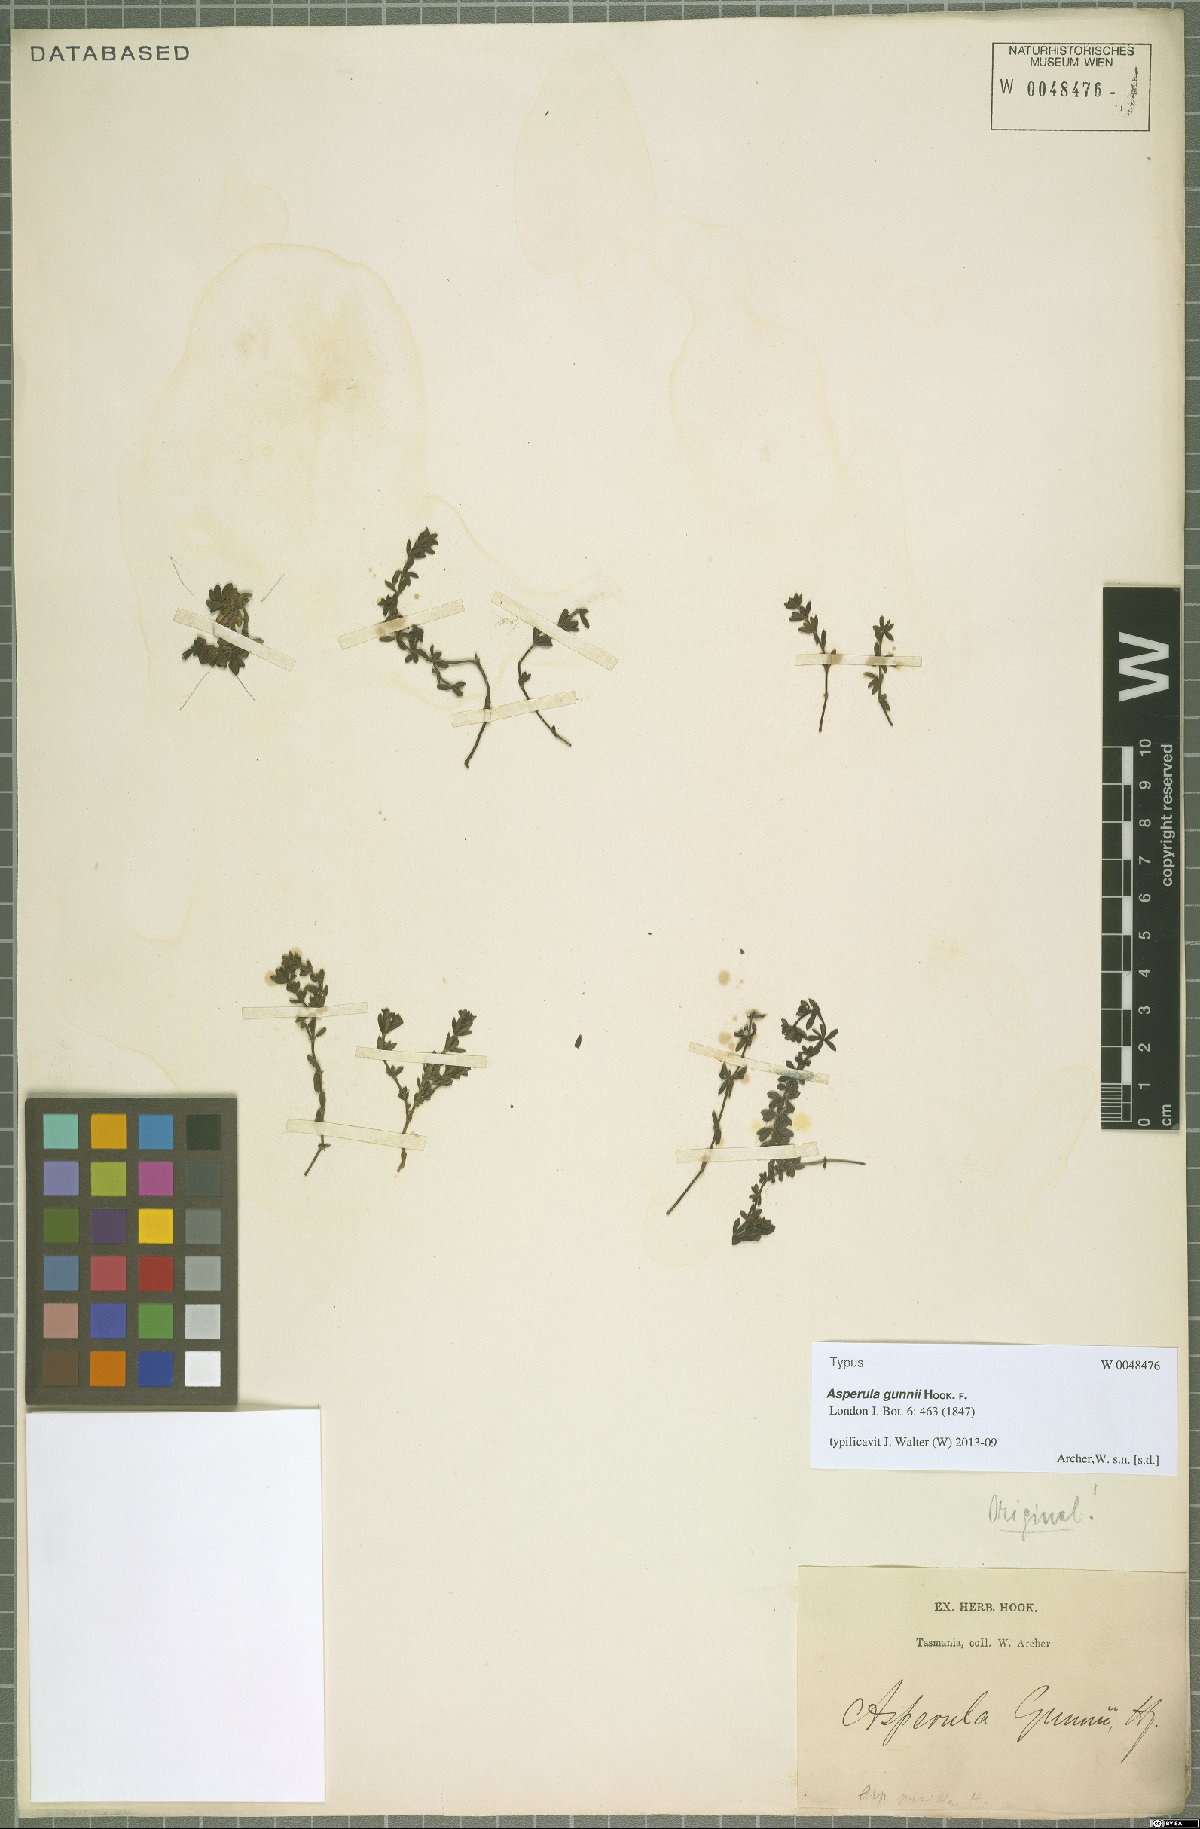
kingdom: Plantae
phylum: Tracheophyta
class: Magnoliopsida
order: Gentianales
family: Rubiaceae
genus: Asperula
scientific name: Asperula gunnii
